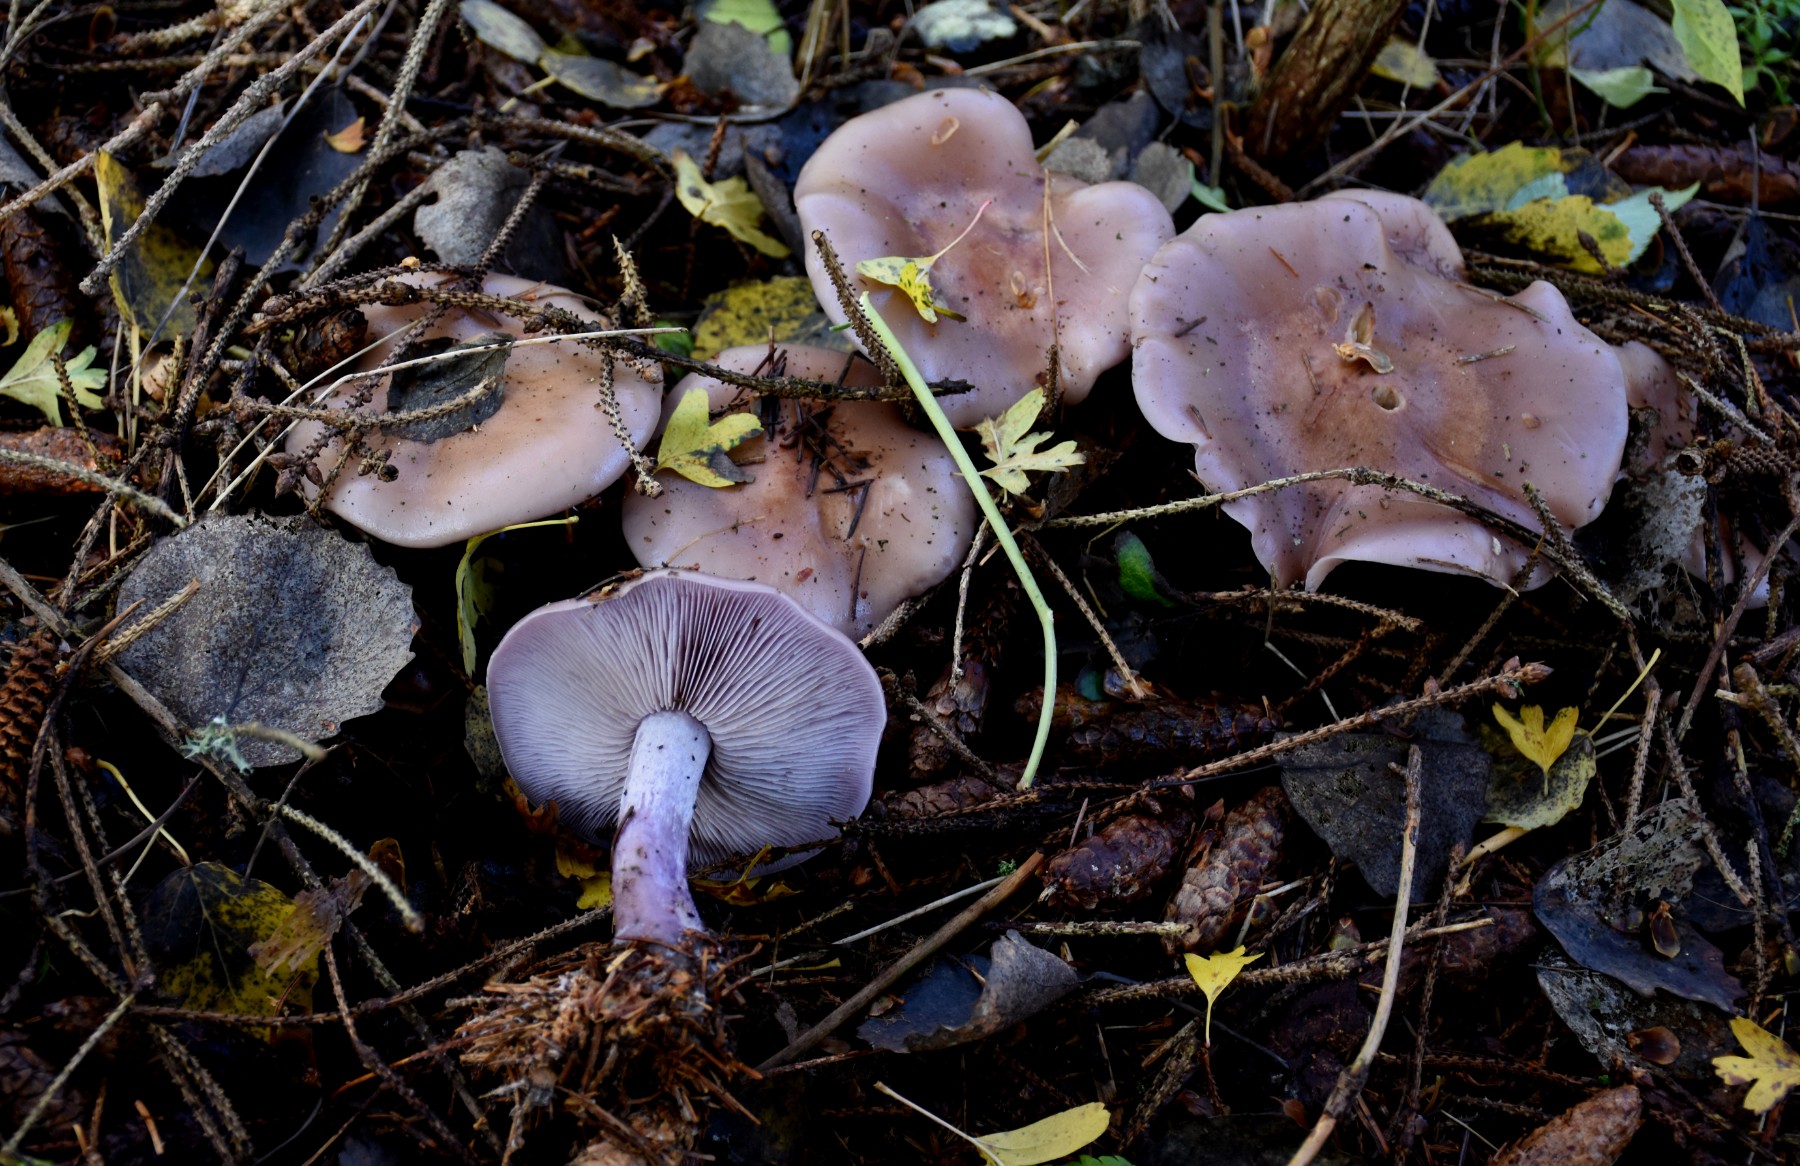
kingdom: Fungi
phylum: Basidiomycota
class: Agaricomycetes
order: Agaricales
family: Tricholomataceae
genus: Lepista
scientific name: Lepista nuda
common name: violet hekseringshat
